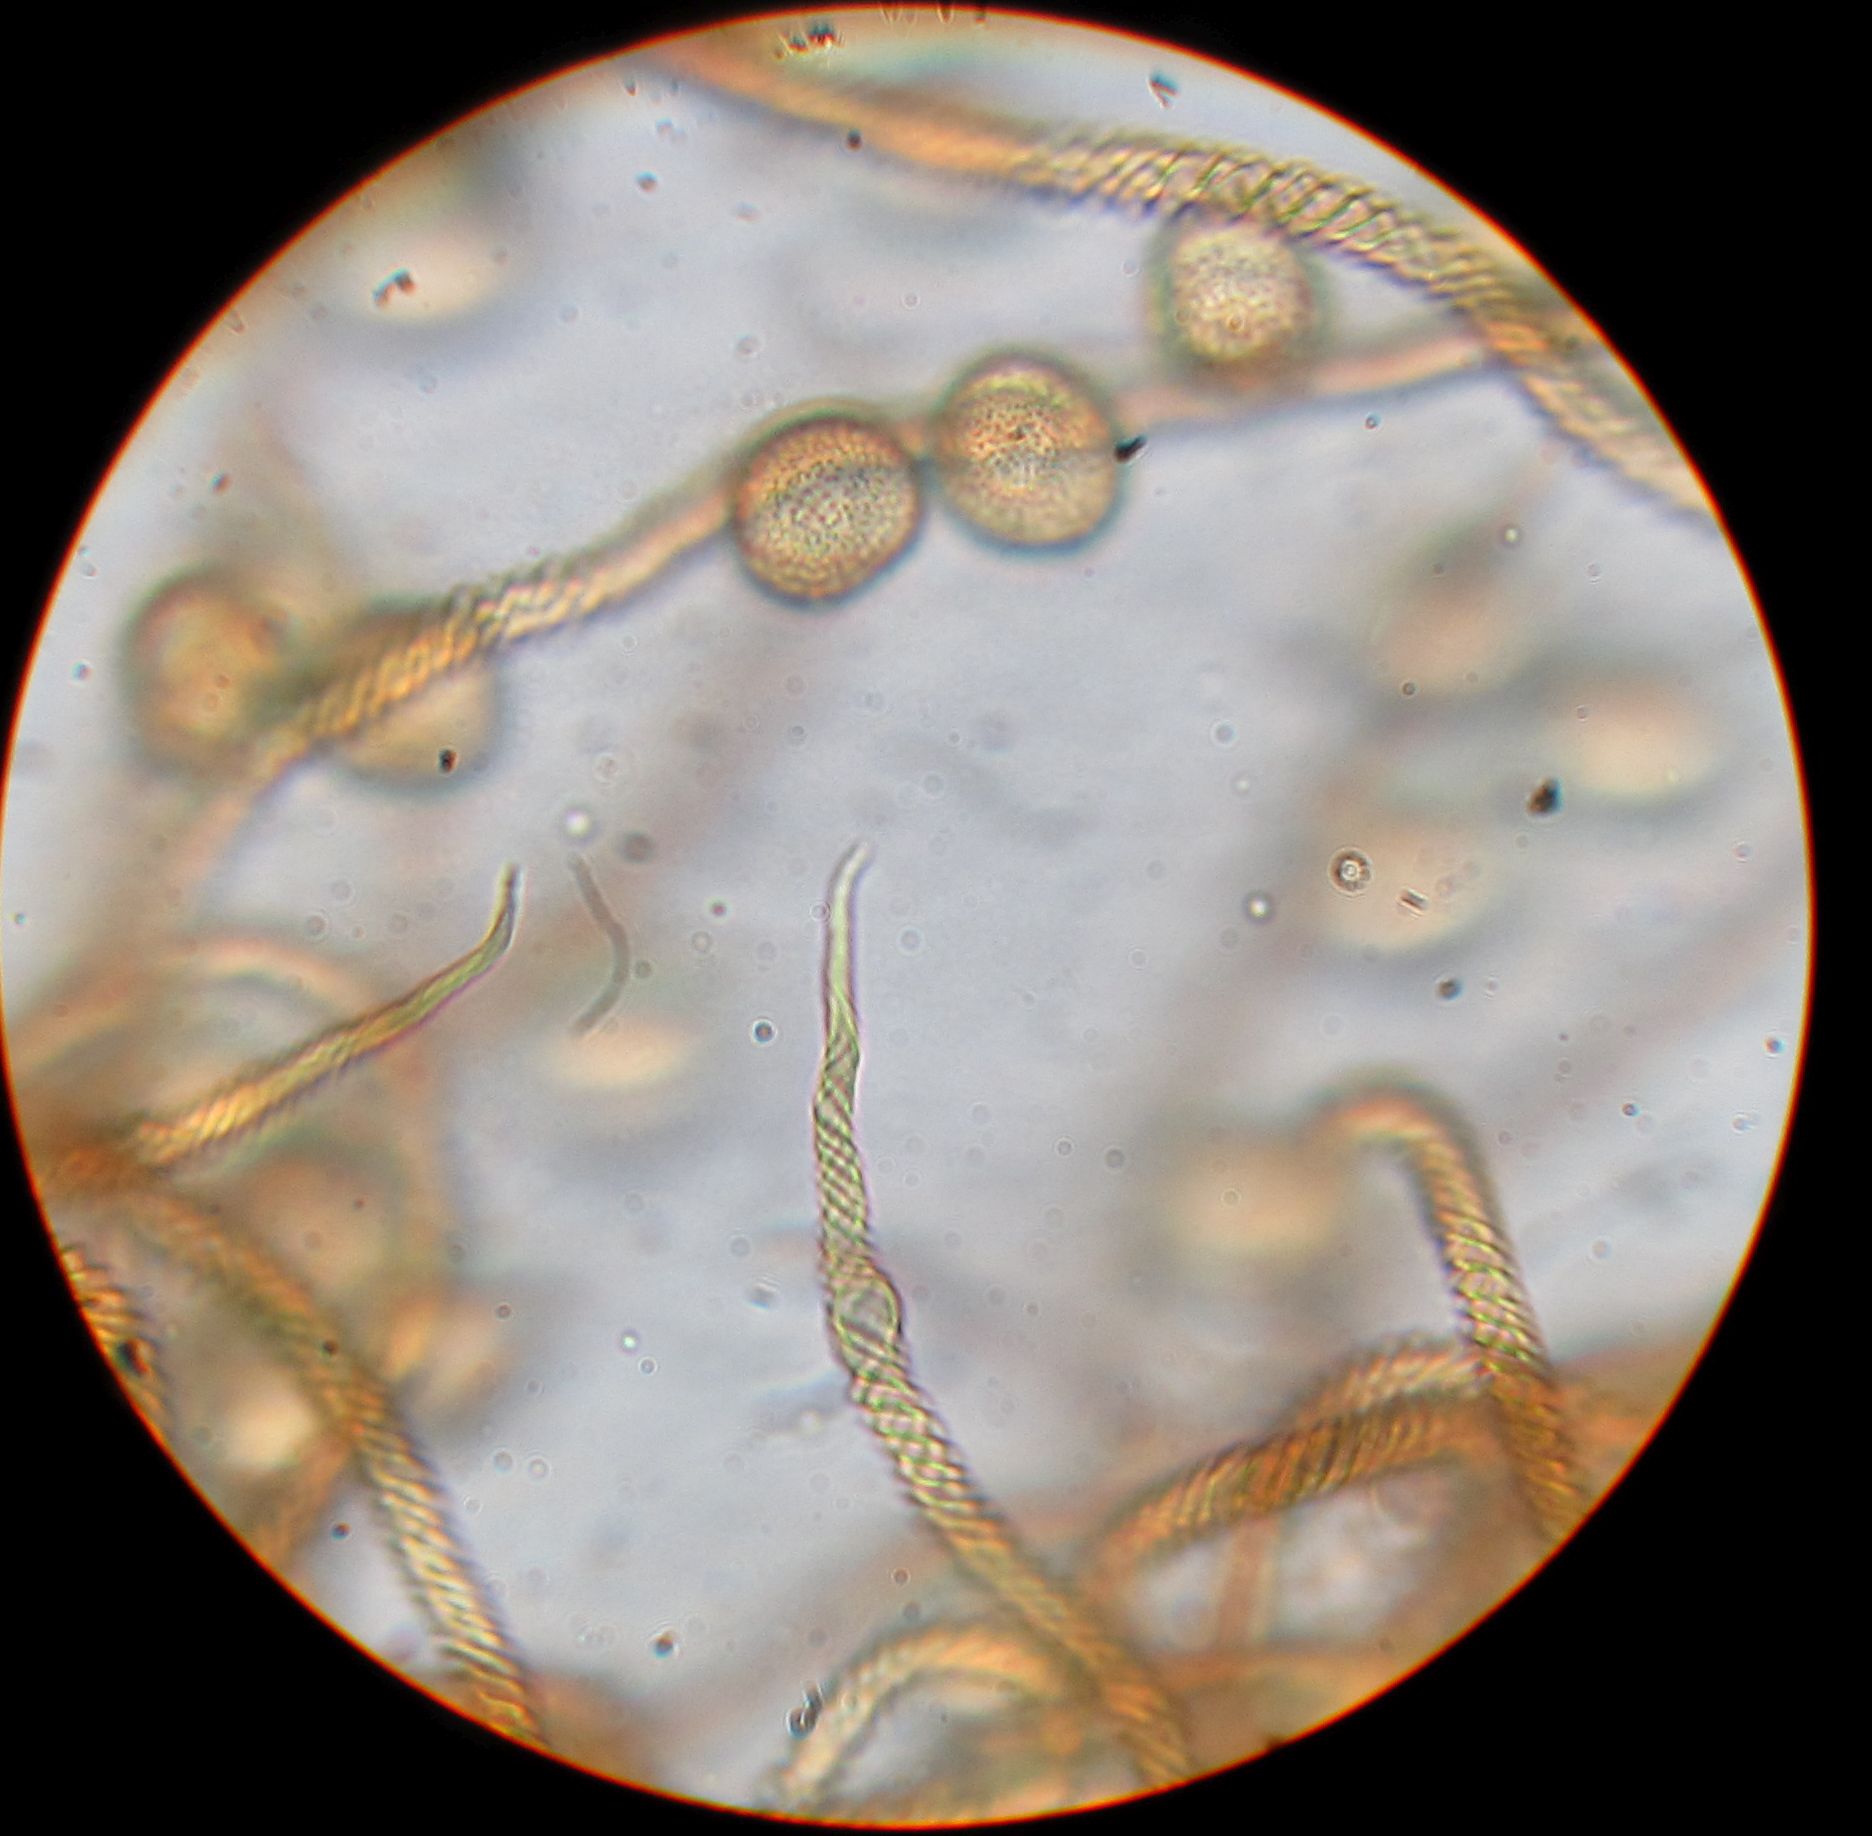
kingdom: Protozoa
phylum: Mycetozoa
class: Myxomycetes
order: Trichiales
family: Trichiaceae
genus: Trichia
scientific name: Trichia contorta
